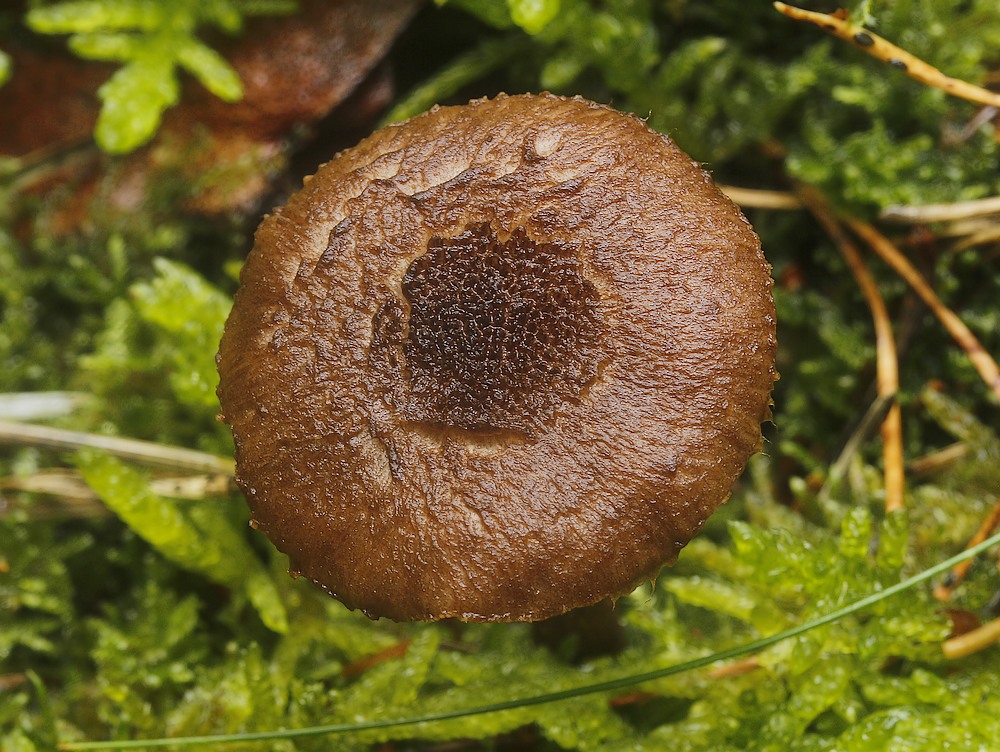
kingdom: Fungi
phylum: Basidiomycota
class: Agaricomycetes
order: Agaricales
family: Inocybaceae
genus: Inocybe
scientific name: Inocybe
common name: trævlhat
